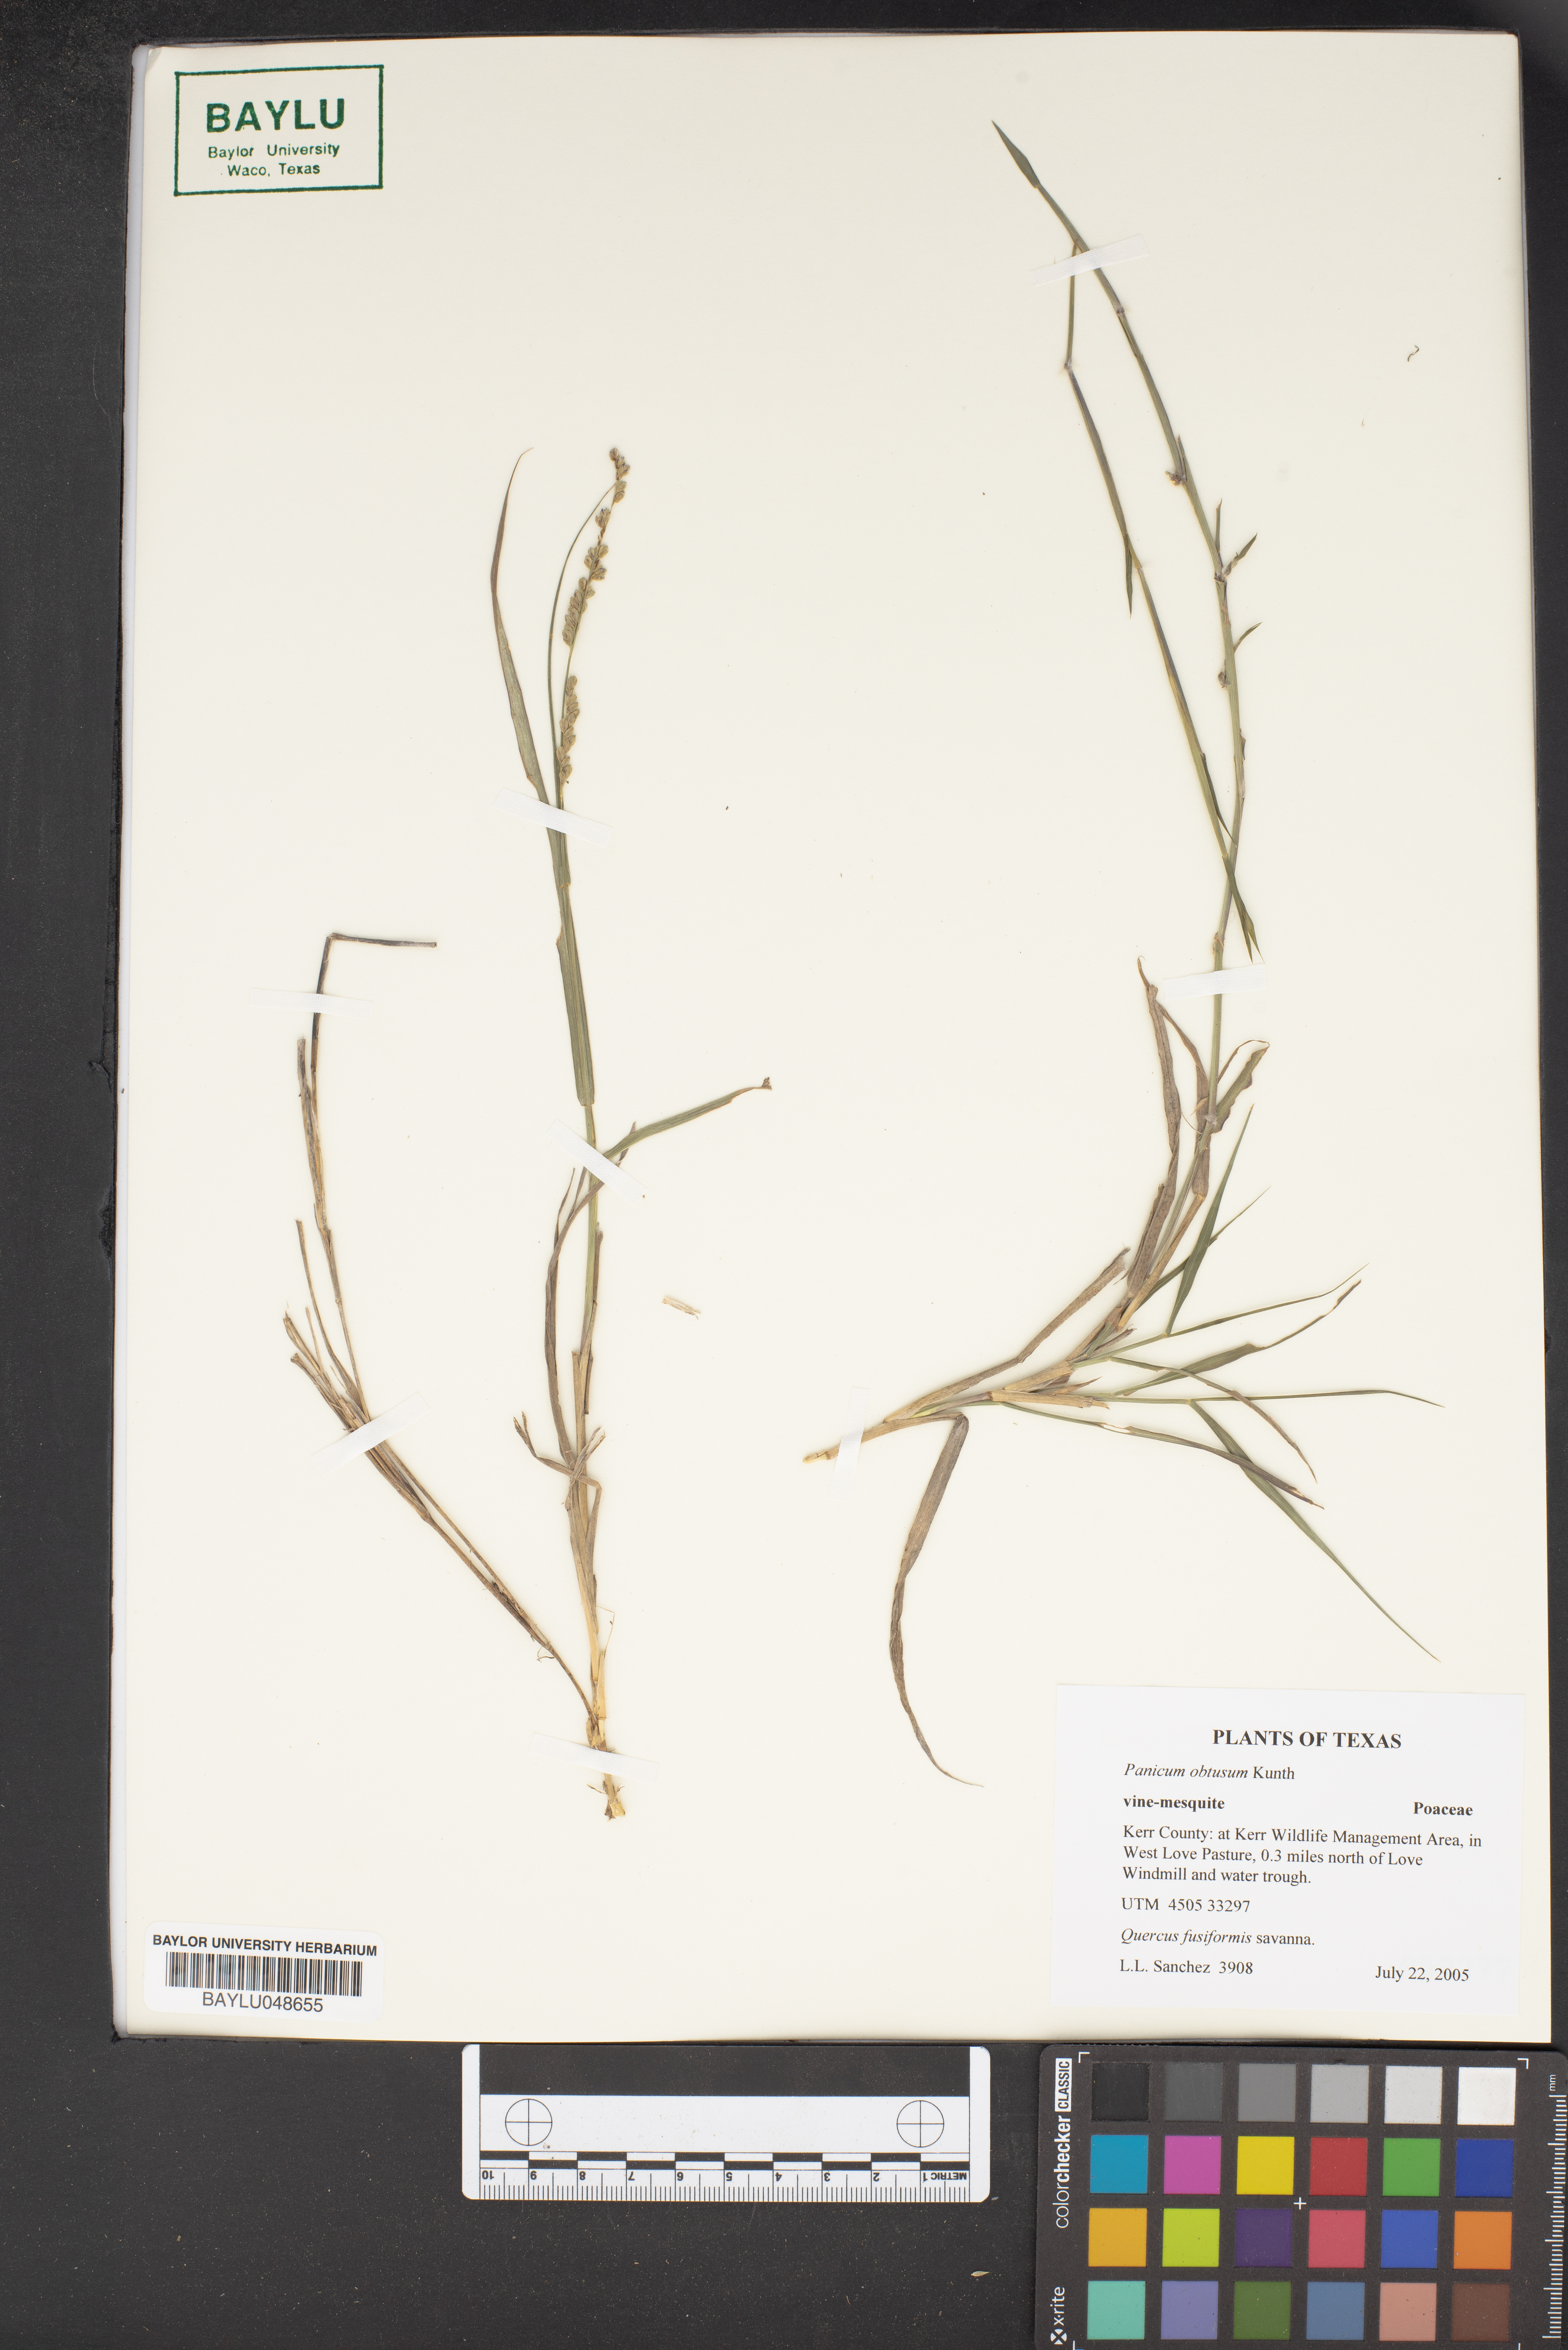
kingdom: Plantae
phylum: Tracheophyta
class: Liliopsida
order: Poales
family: Poaceae
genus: Hopia
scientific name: Hopia obtusa
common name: Vine-mesquite
